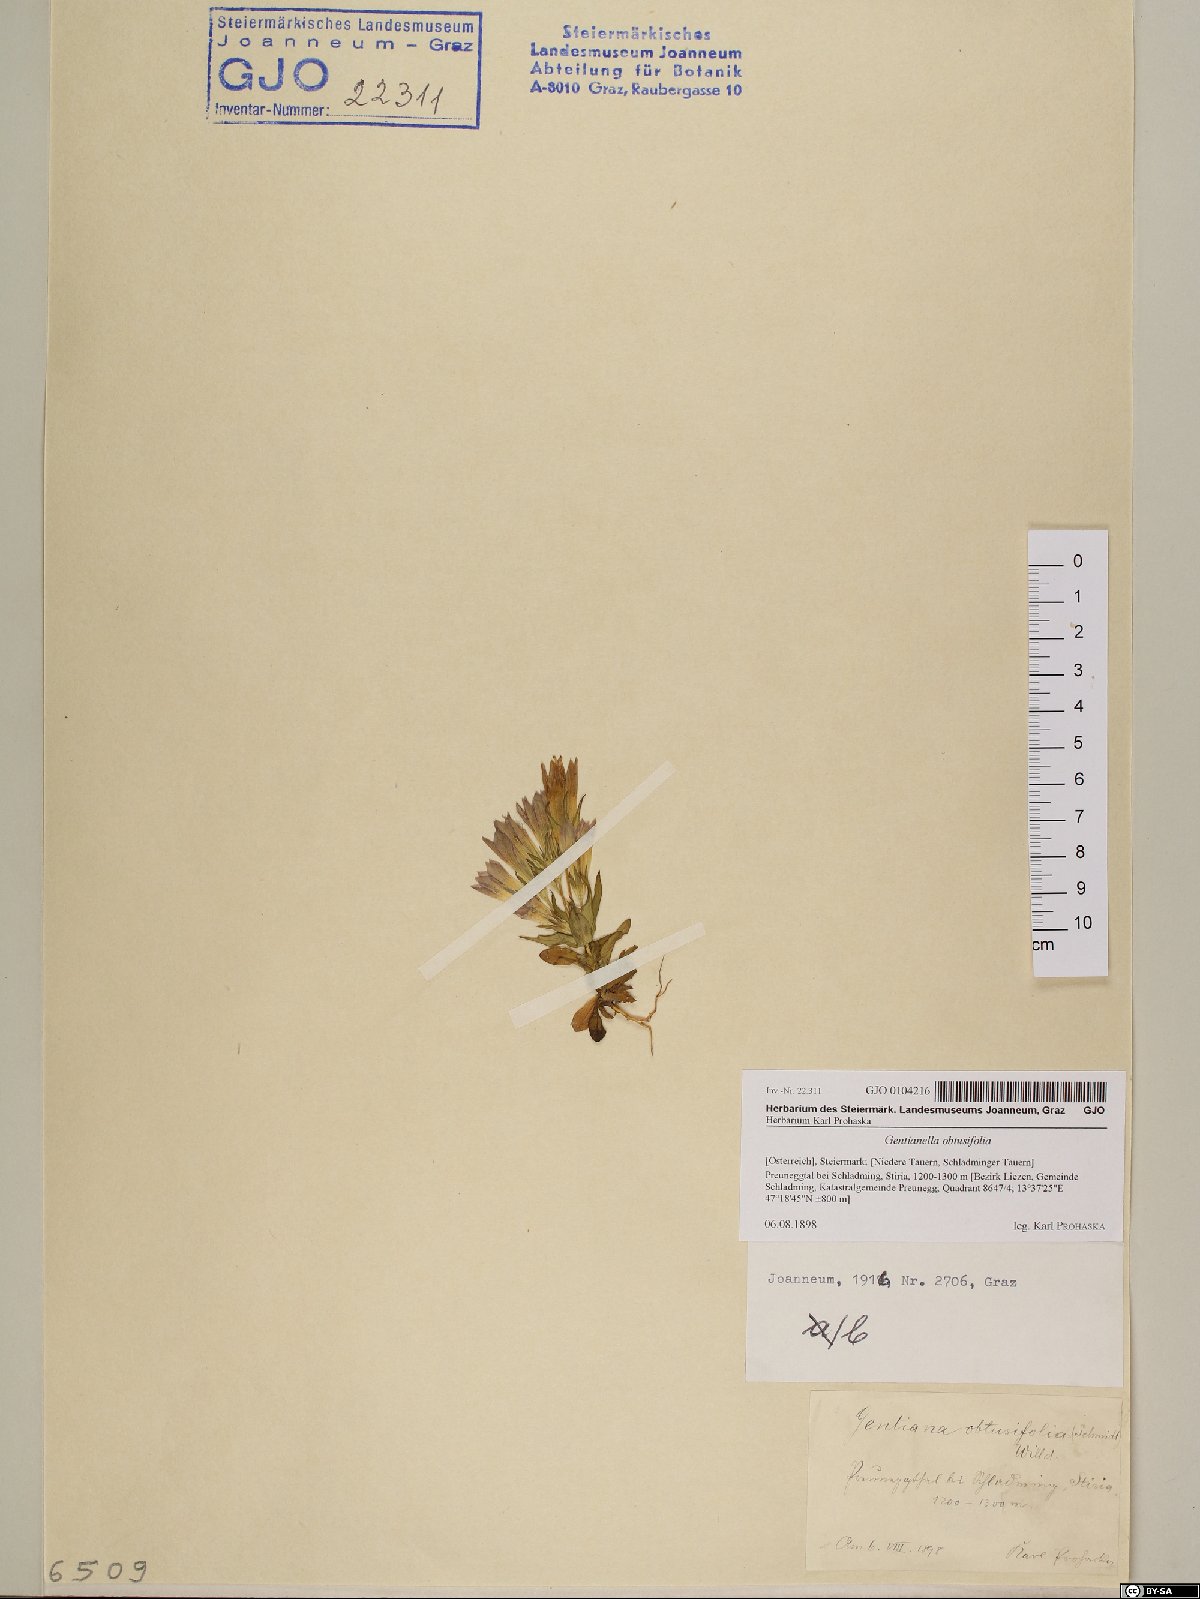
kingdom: Plantae
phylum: Tracheophyta
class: Magnoliopsida
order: Gentianales
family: Gentianaceae
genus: Gentianella
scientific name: Gentianella obtusifolia
